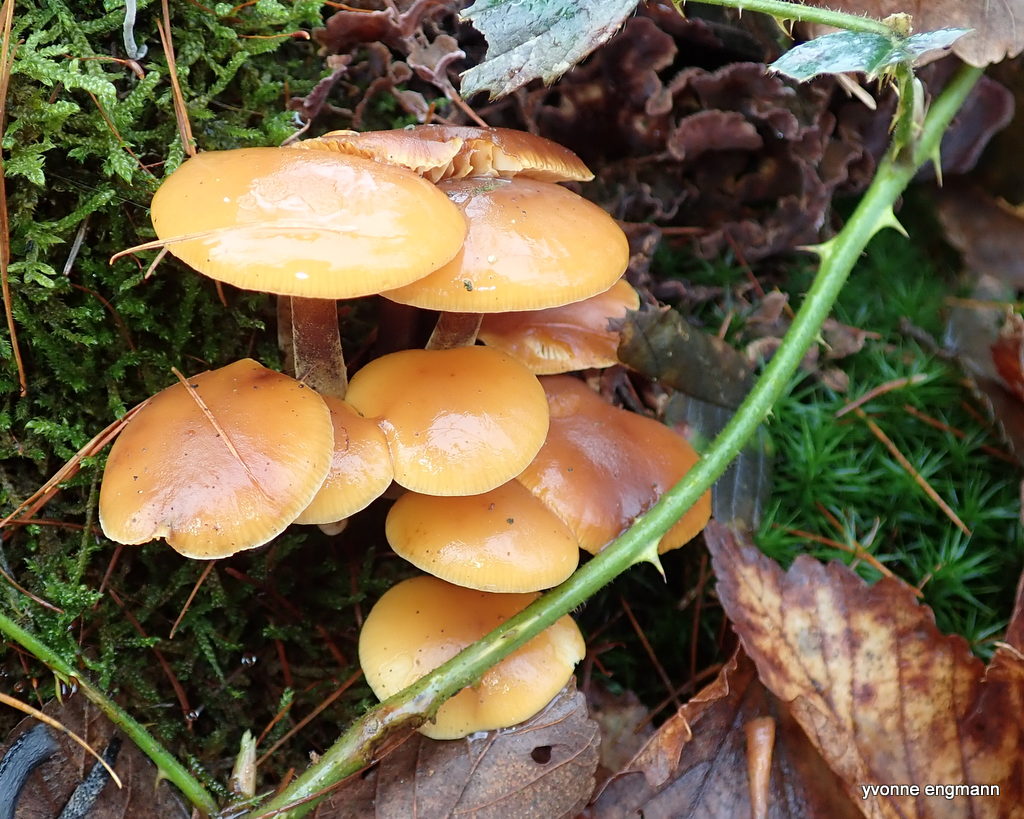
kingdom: Fungi
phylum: Basidiomycota
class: Agaricomycetes
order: Agaricales
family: Physalacriaceae
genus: Flammulina
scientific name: Flammulina velutipes
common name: gul fløjlsfod
